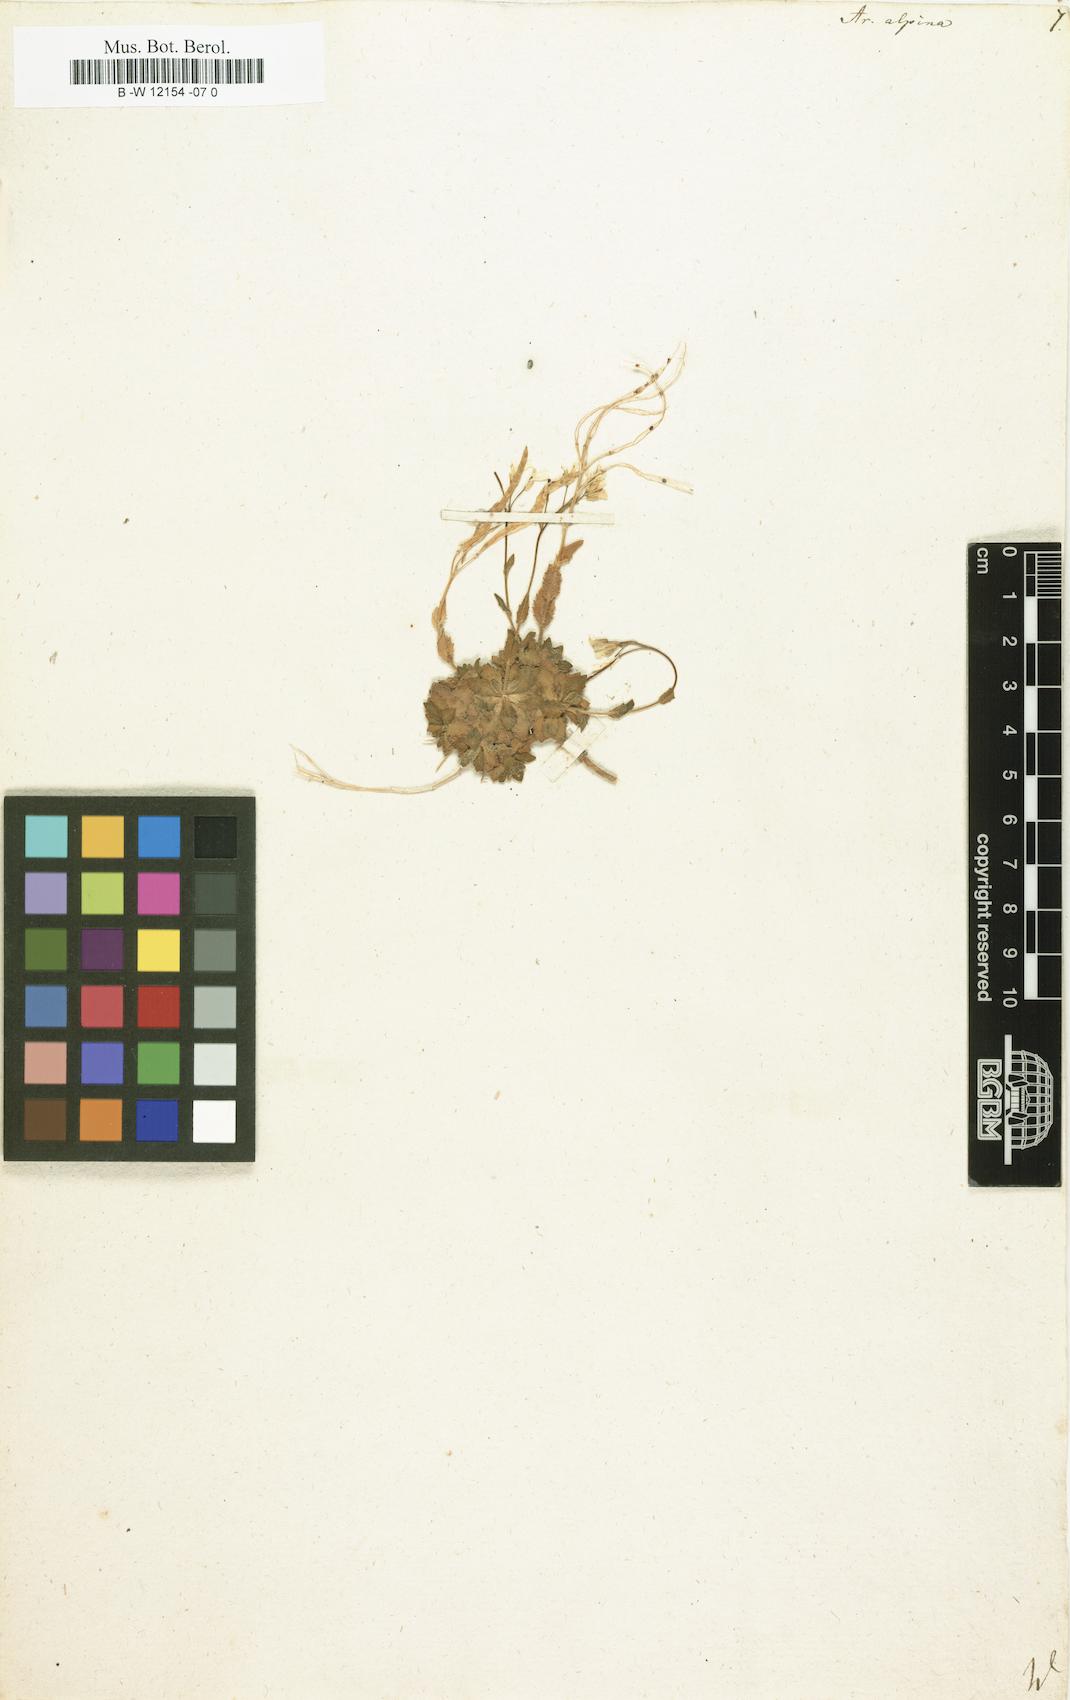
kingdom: Plantae
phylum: Tracheophyta
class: Magnoliopsida
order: Brassicales
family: Brassicaceae
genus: Arabis
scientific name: Arabis alpina
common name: Alpine rock-cress
